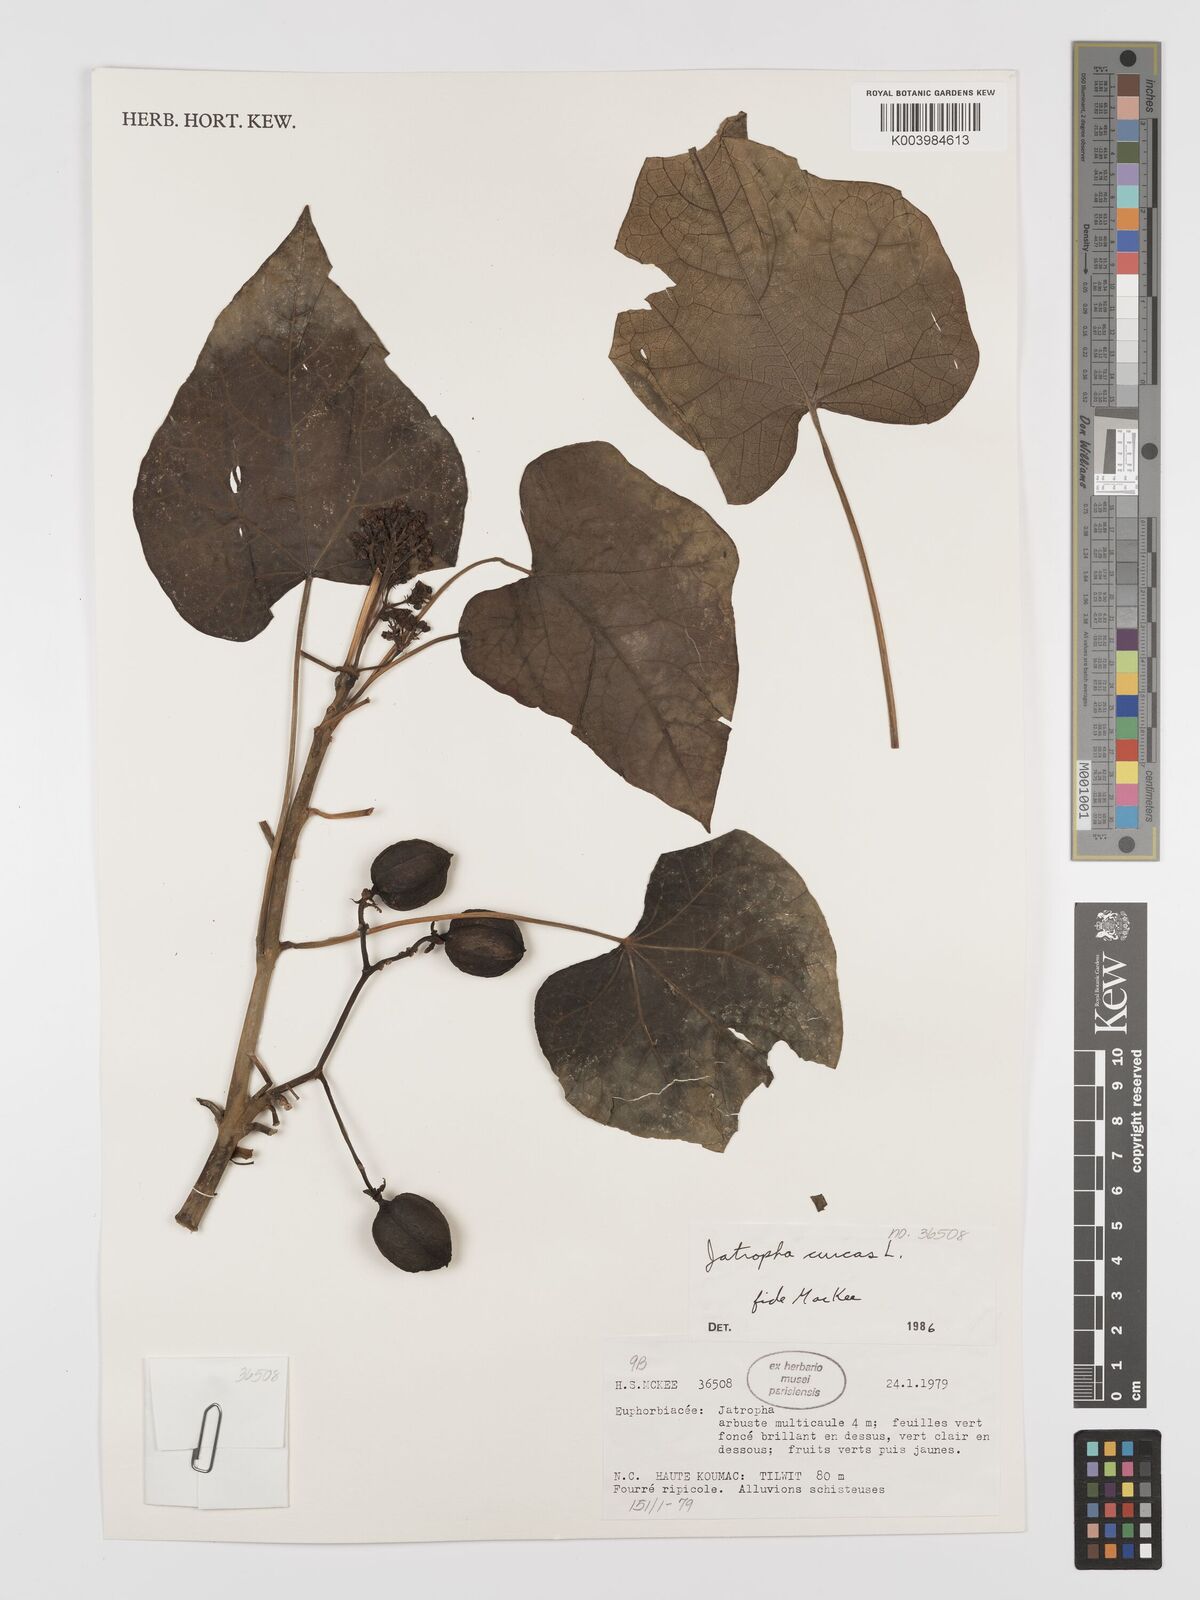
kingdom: Plantae
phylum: Tracheophyta
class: Magnoliopsida
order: Malpighiales
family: Euphorbiaceae
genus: Jatropha
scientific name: Jatropha curcas
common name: Barbados nut
